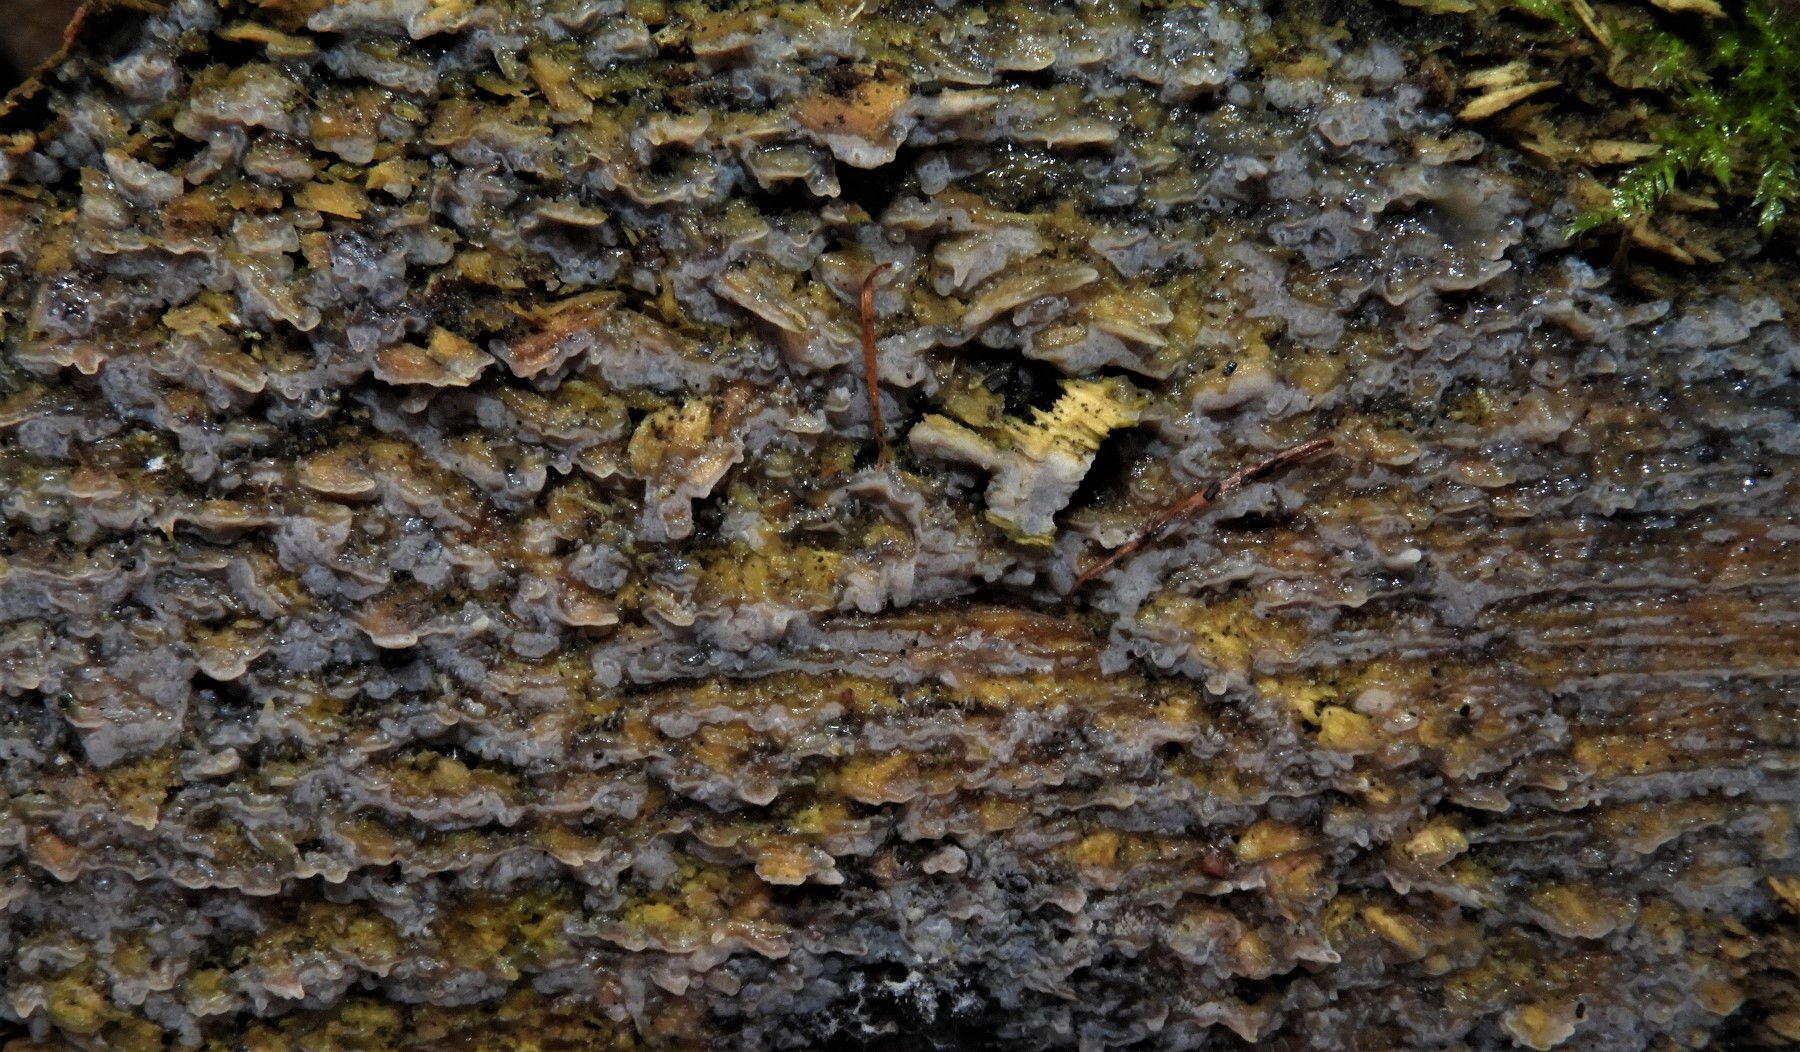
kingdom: Fungi
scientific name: Fungi
